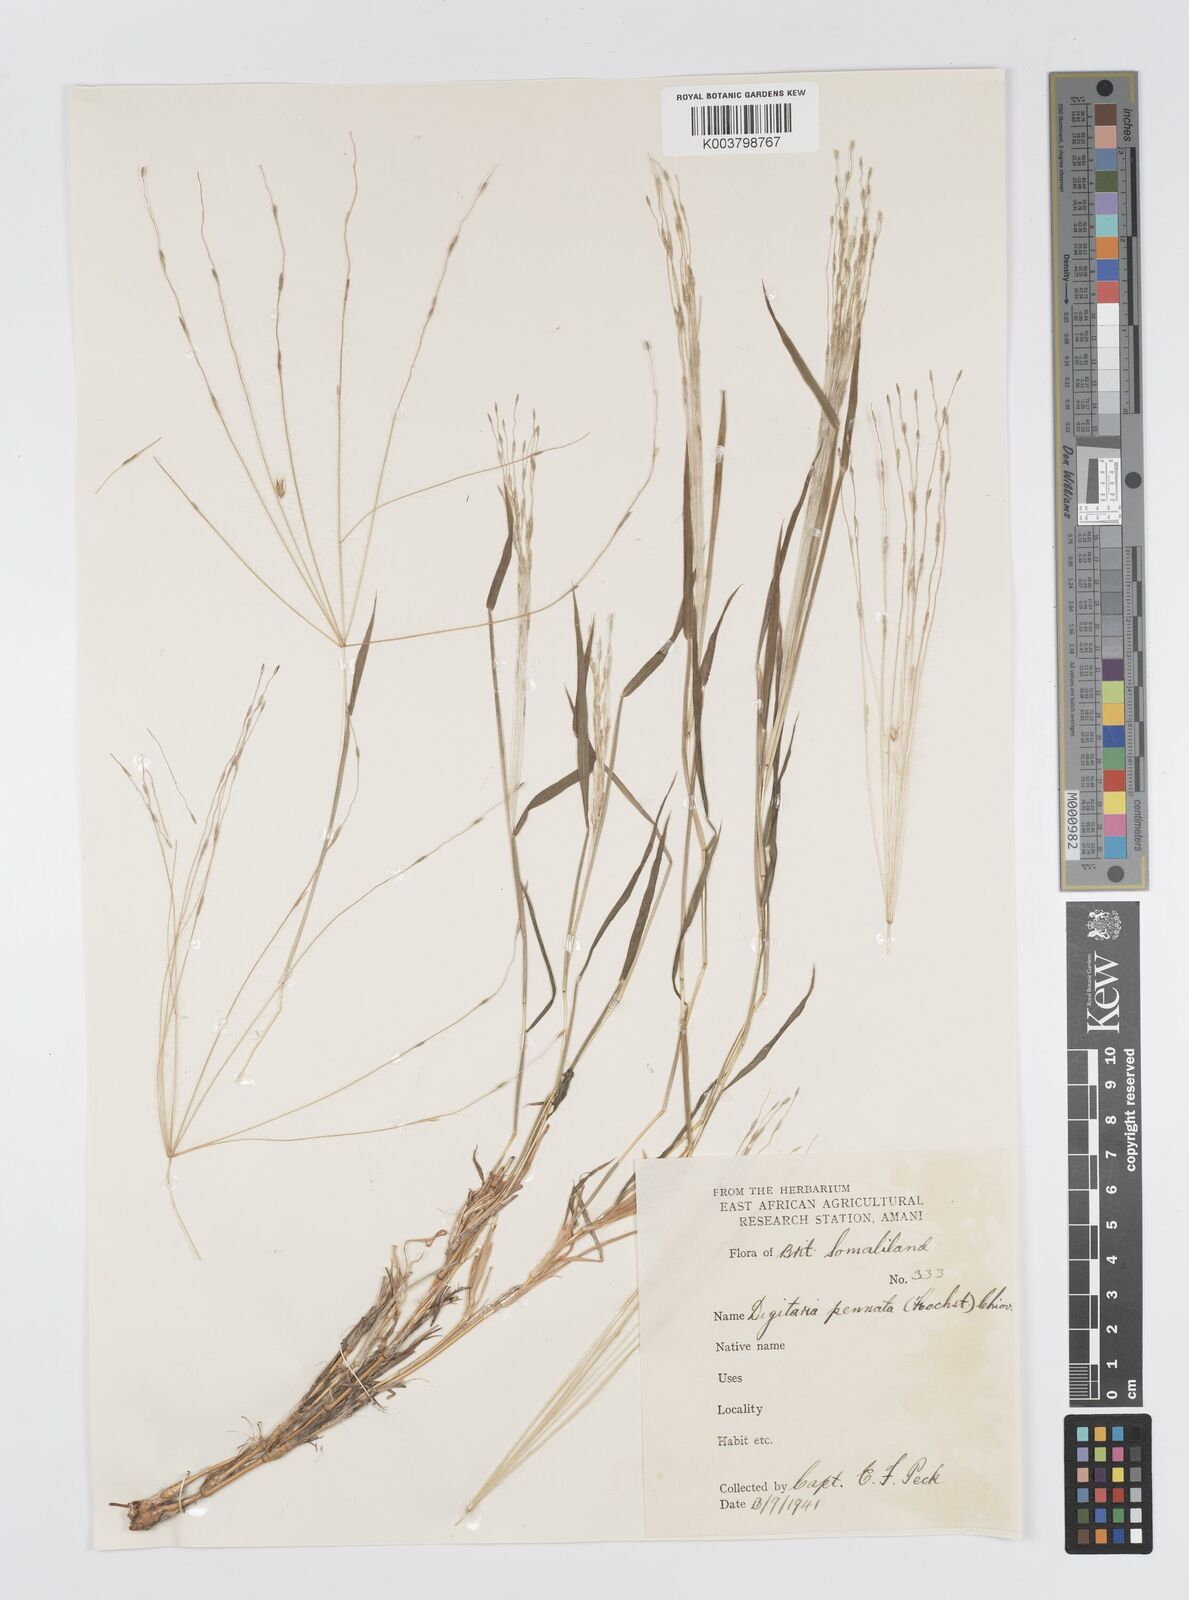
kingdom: Plantae
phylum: Tracheophyta
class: Liliopsida
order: Poales
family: Poaceae
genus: Digitaria
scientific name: Digitaria pennata
